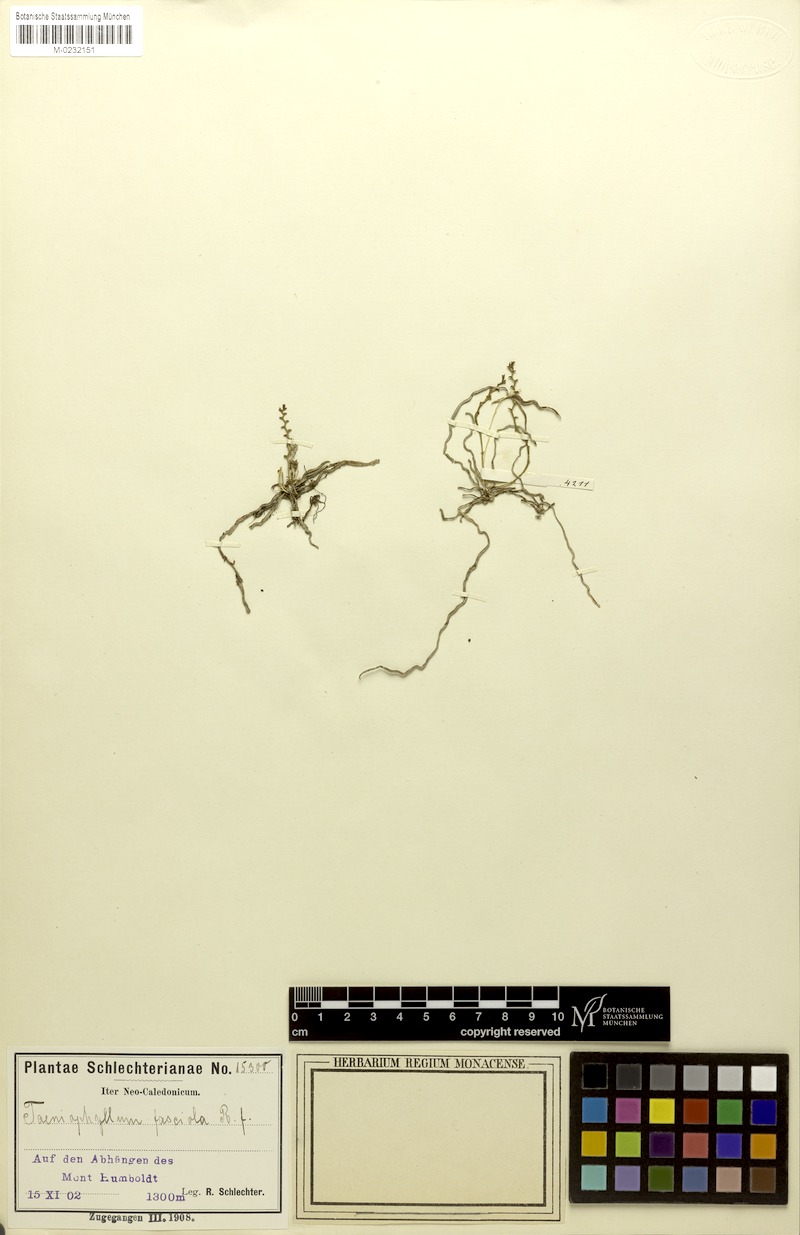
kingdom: Plantae
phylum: Tracheophyta
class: Liliopsida
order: Asparagales
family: Orchidaceae
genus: Taeniophyllum
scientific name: Taeniophyllum rudolfii
